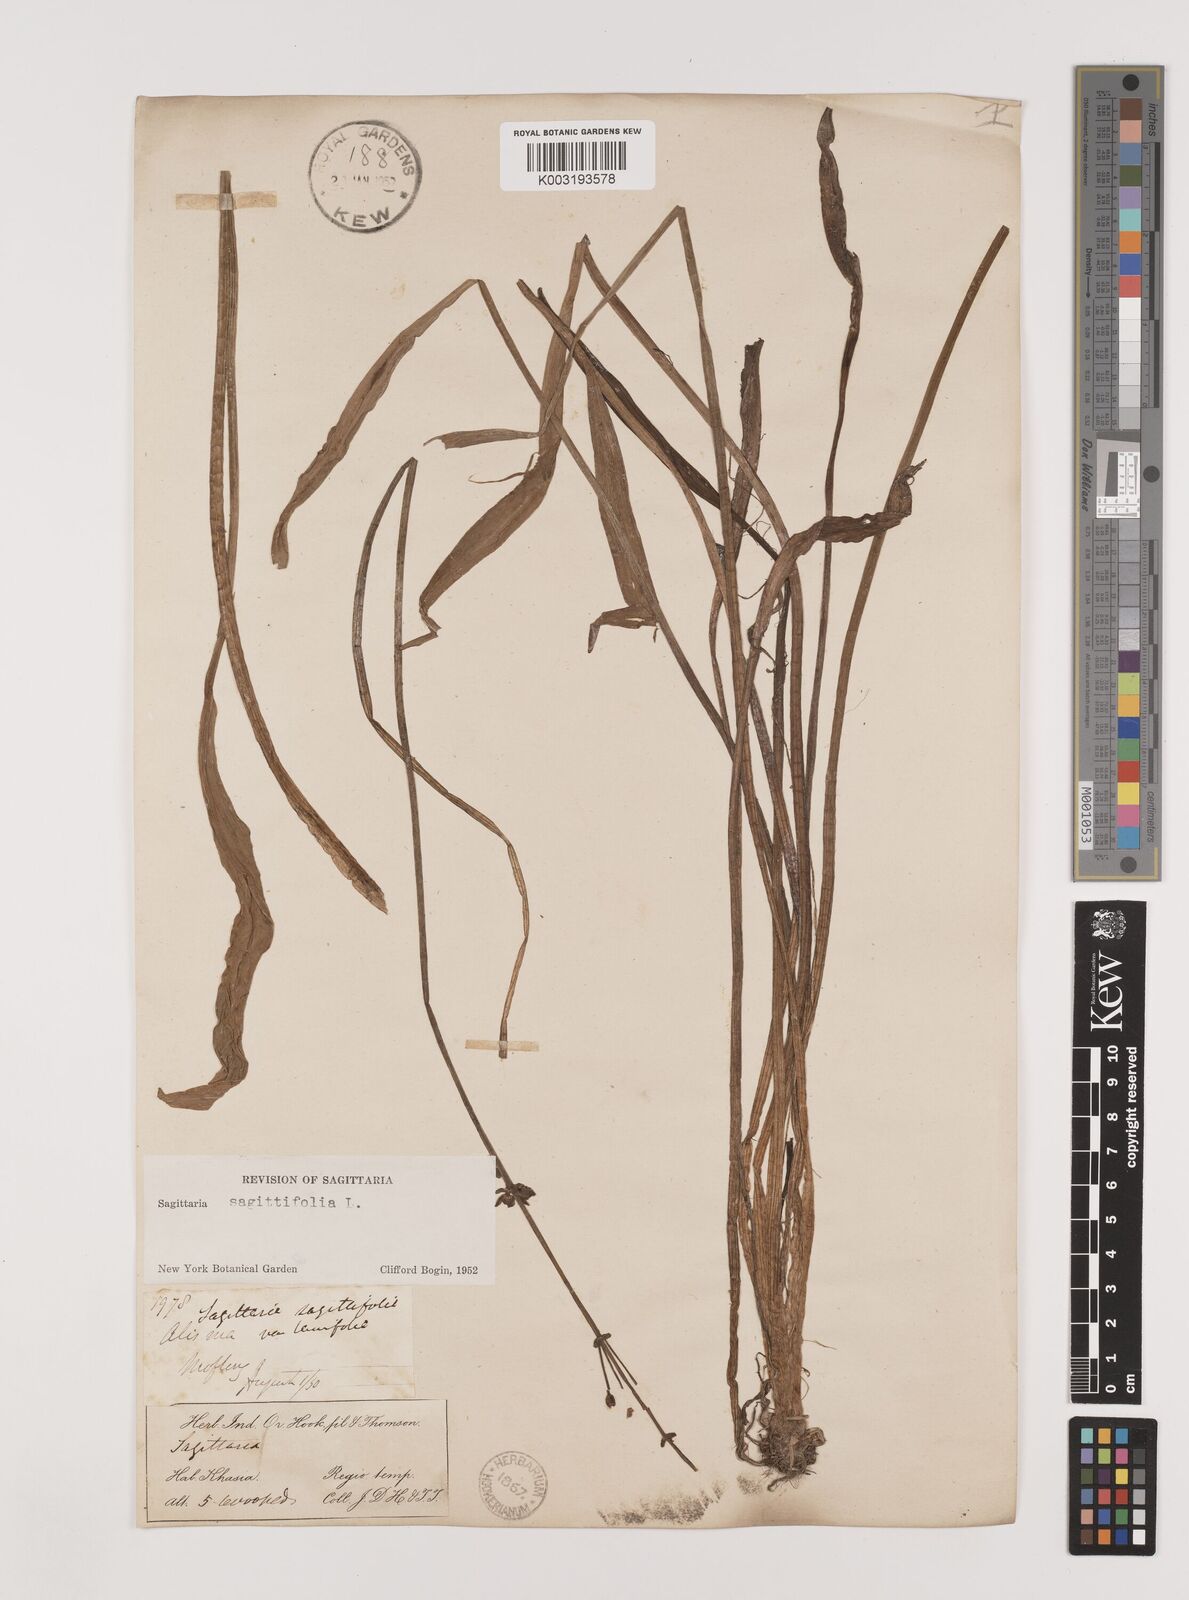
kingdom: Plantae
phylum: Tracheophyta
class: Liliopsida
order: Alismatales
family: Alismataceae
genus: Sagittaria
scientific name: Sagittaria sagittifolia
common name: Arrowhead
